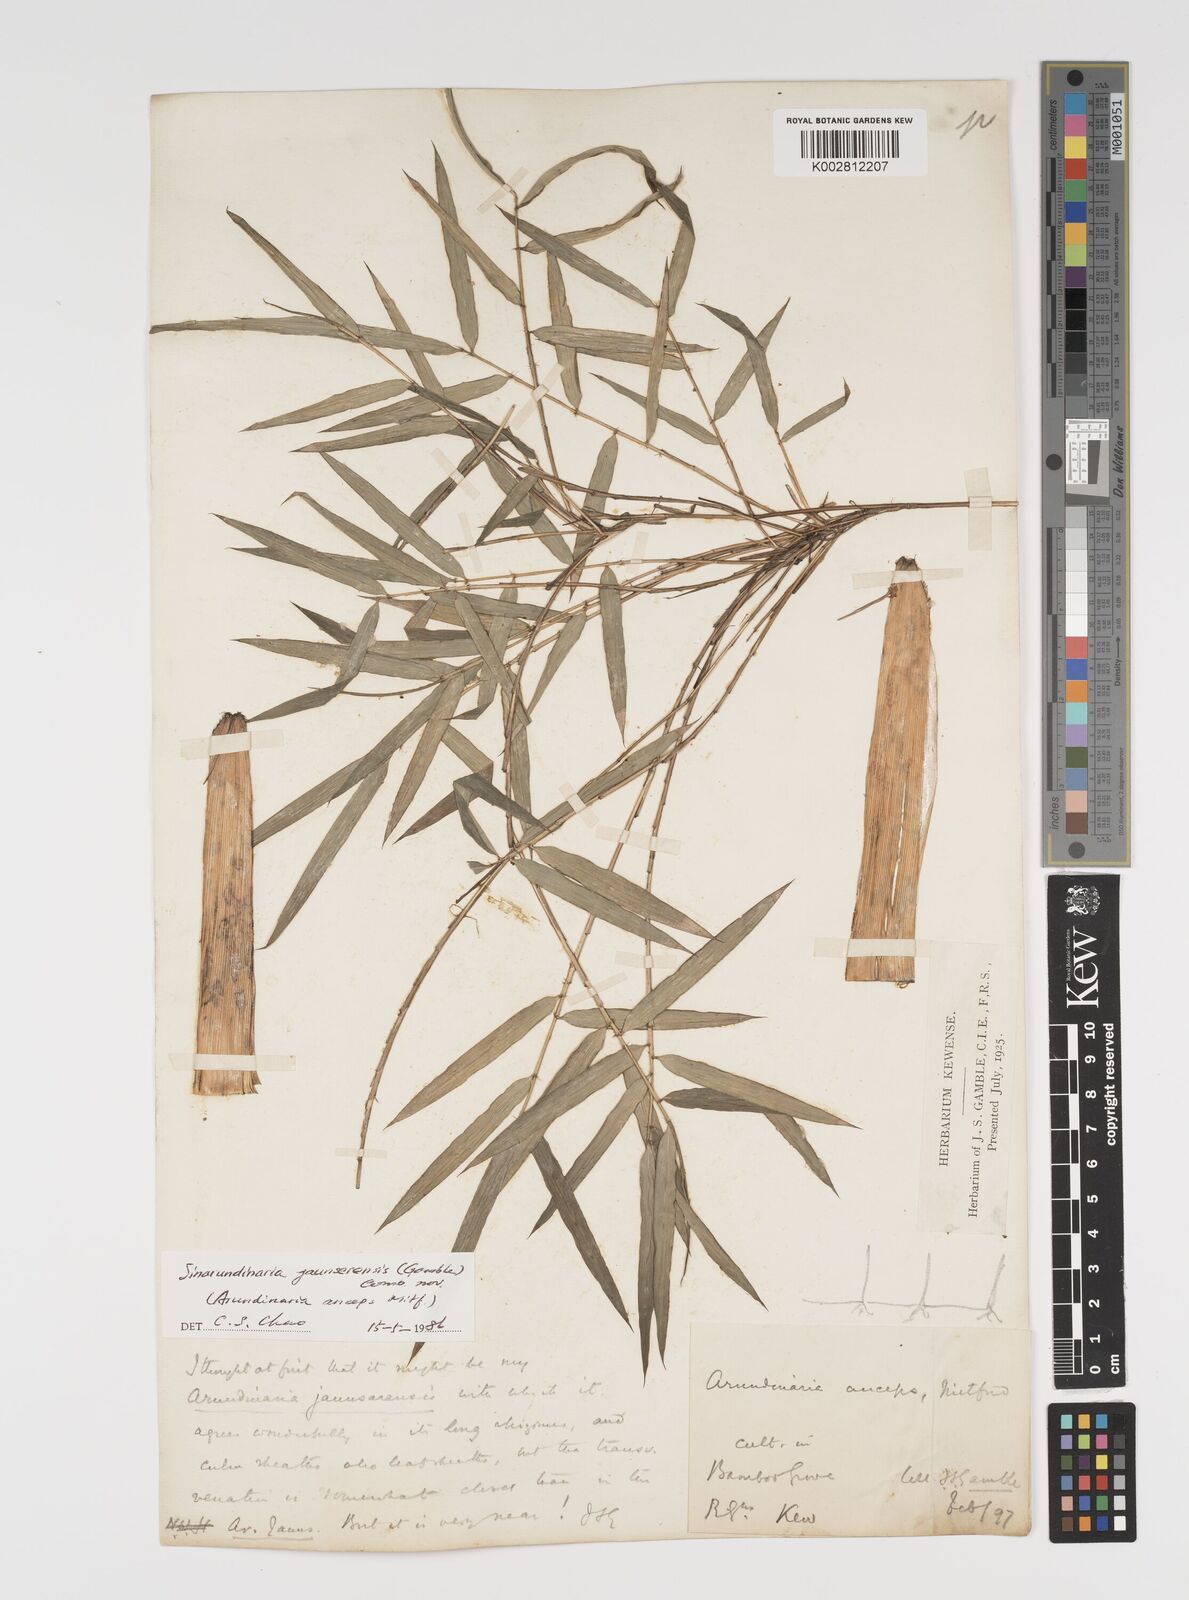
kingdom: Plantae
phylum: Tracheophyta
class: Liliopsida
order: Poales
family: Poaceae
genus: Yushania
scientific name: Yushania anceps
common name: Indian fountain-bamboo
